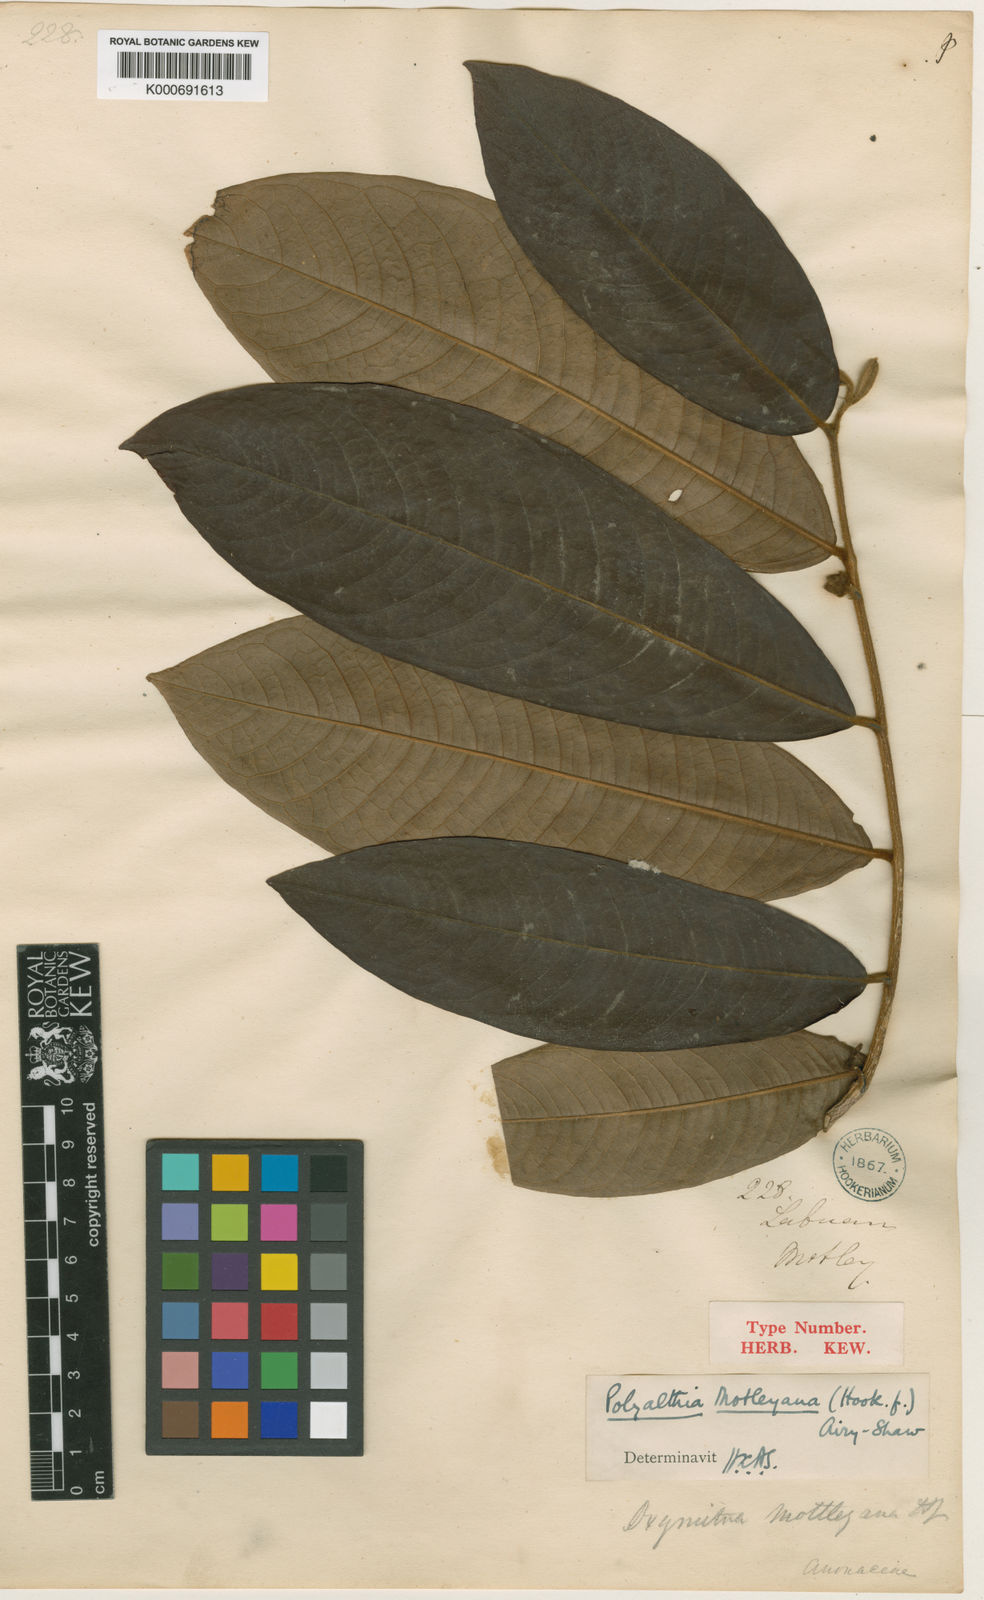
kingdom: Plantae
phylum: Tracheophyta
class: Magnoliopsida
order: Magnoliales
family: Annonaceae
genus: Polyalthia
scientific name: Polyalthia motleyana
